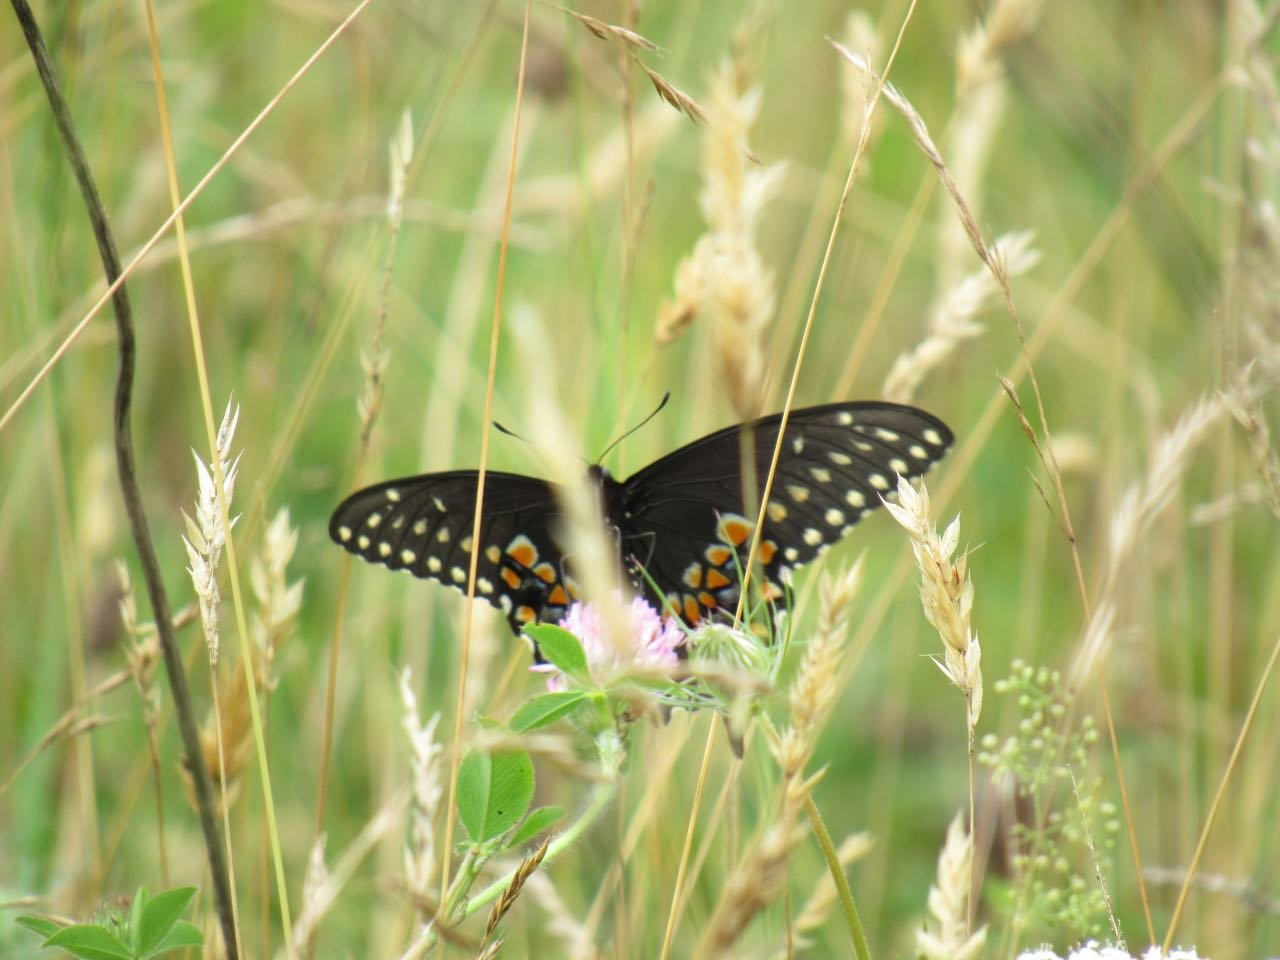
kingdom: Animalia
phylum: Arthropoda
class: Insecta
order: Lepidoptera
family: Papilionidae
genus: Papilio
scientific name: Papilio polyxenes
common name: Black Swallowtail
